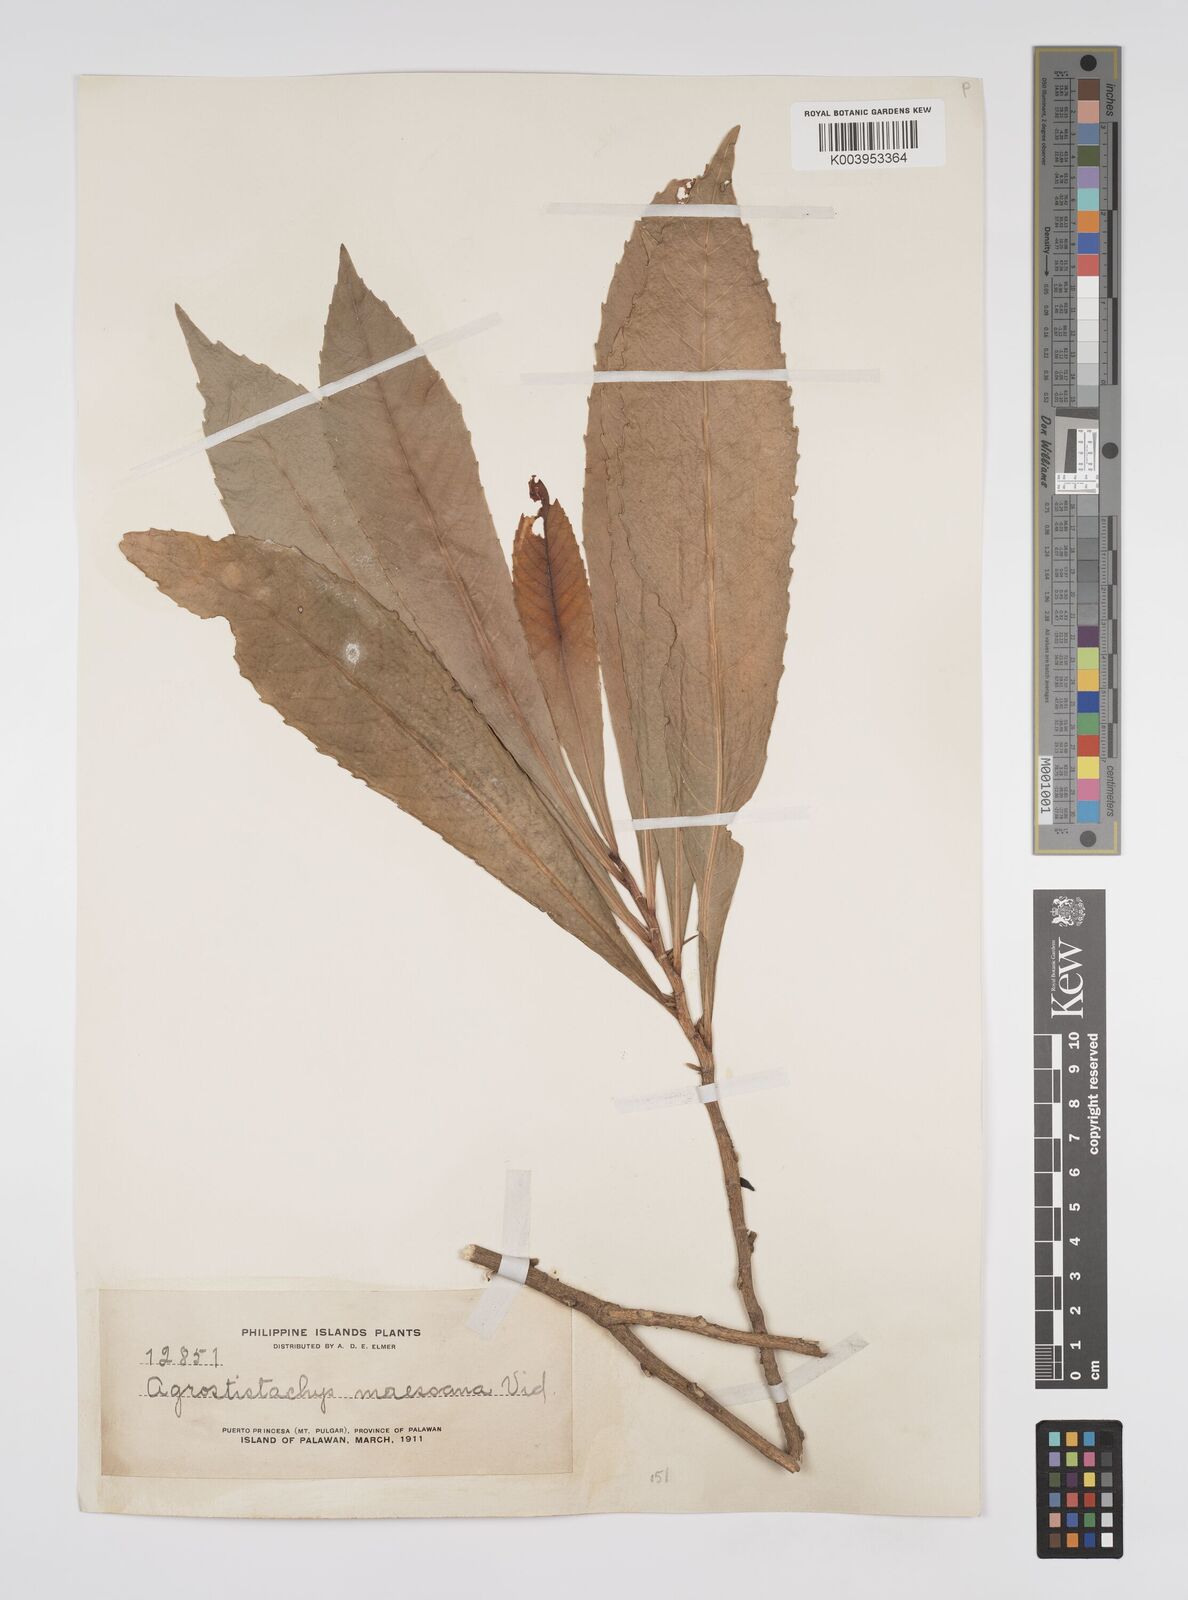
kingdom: Plantae
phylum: Tracheophyta
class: Magnoliopsida
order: Malpighiales
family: Euphorbiaceae
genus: Agrostistachys
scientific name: Agrostistachys indica
